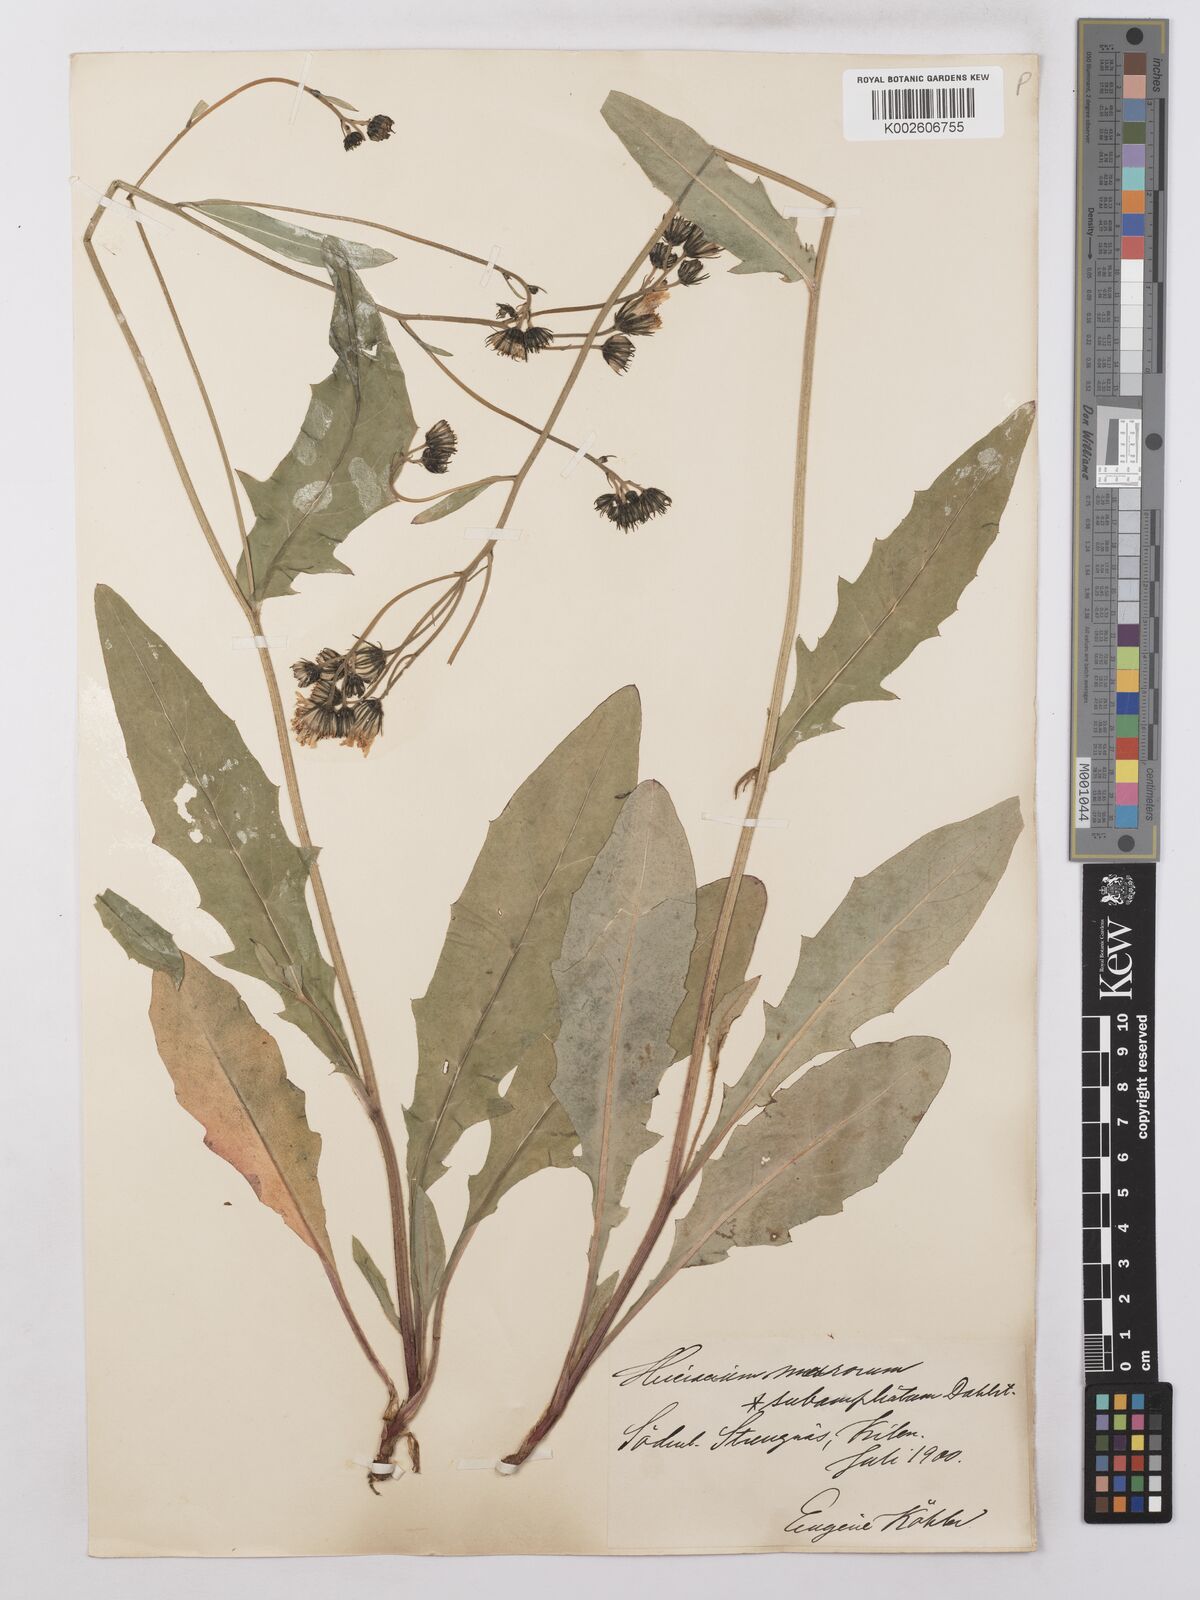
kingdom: Plantae
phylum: Tracheophyta
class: Magnoliopsida
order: Asterales
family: Asteraceae
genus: Hieracium
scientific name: Hieracium lachenalii
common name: Common hawkweed
